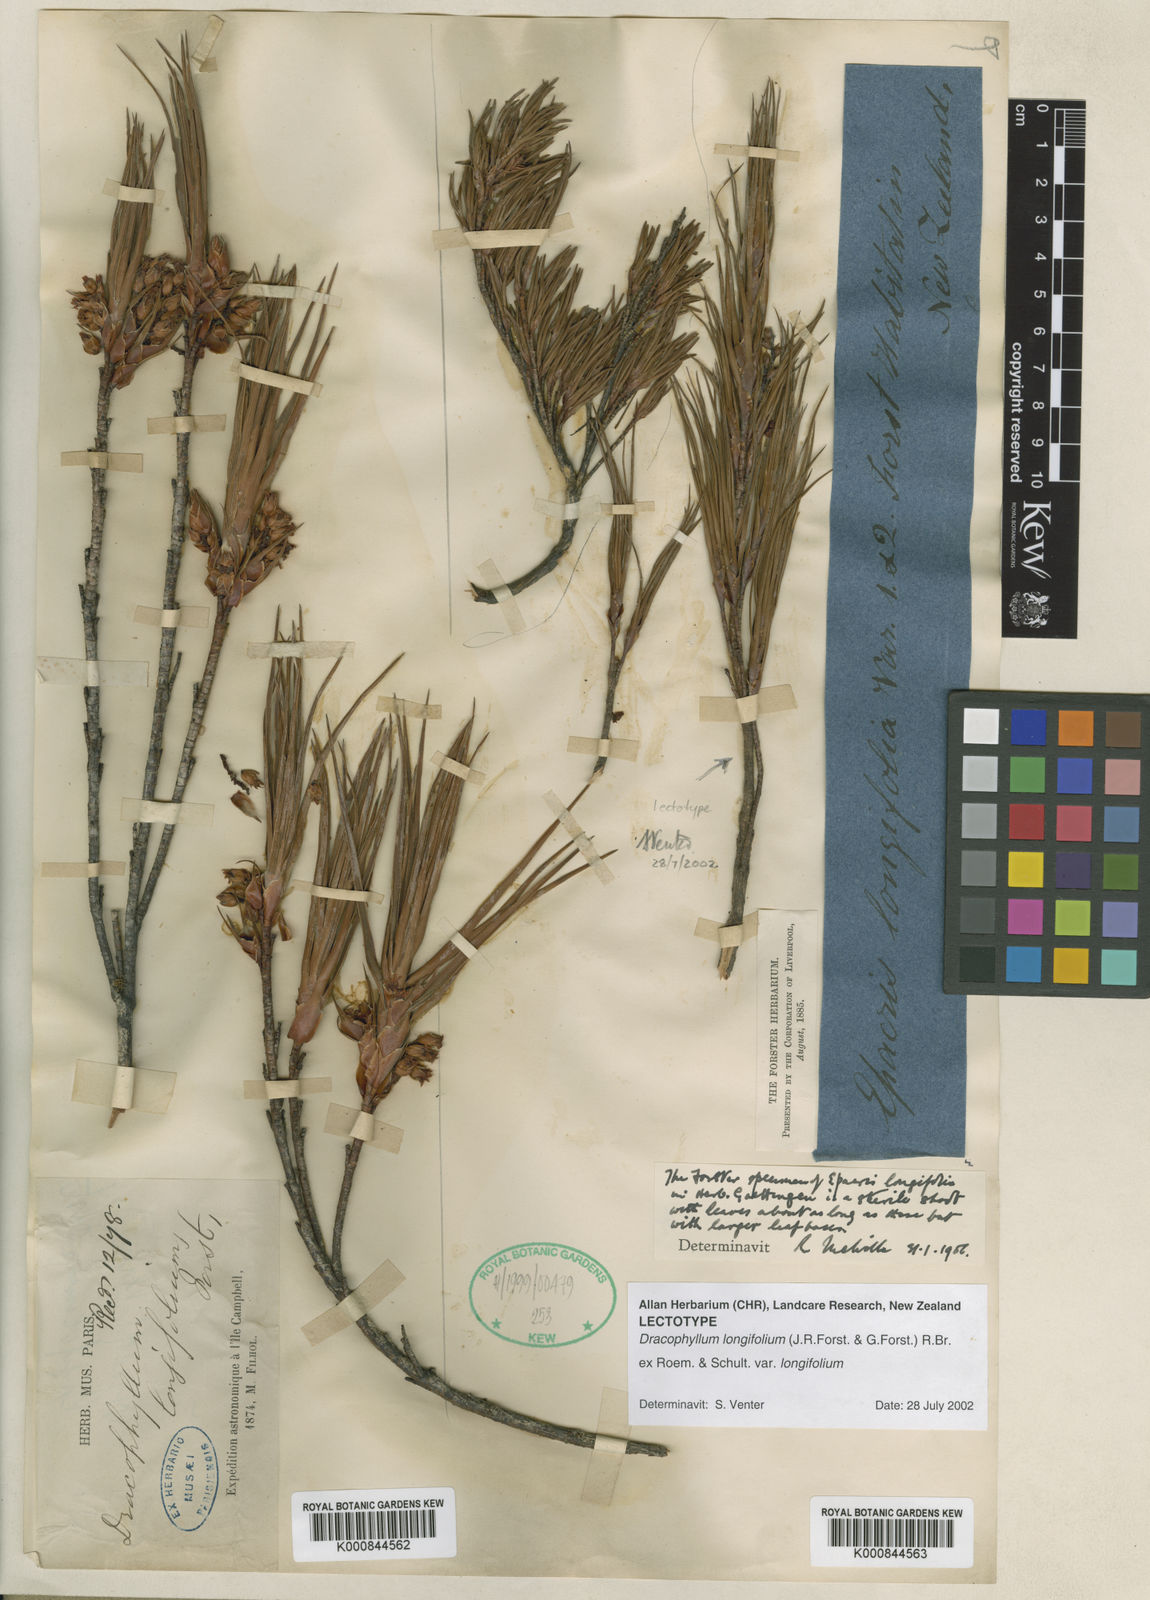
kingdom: Plantae
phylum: Tracheophyta
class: Magnoliopsida
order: Ericales
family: Ericaceae
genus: Dracophyllum
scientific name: Dracophyllum
